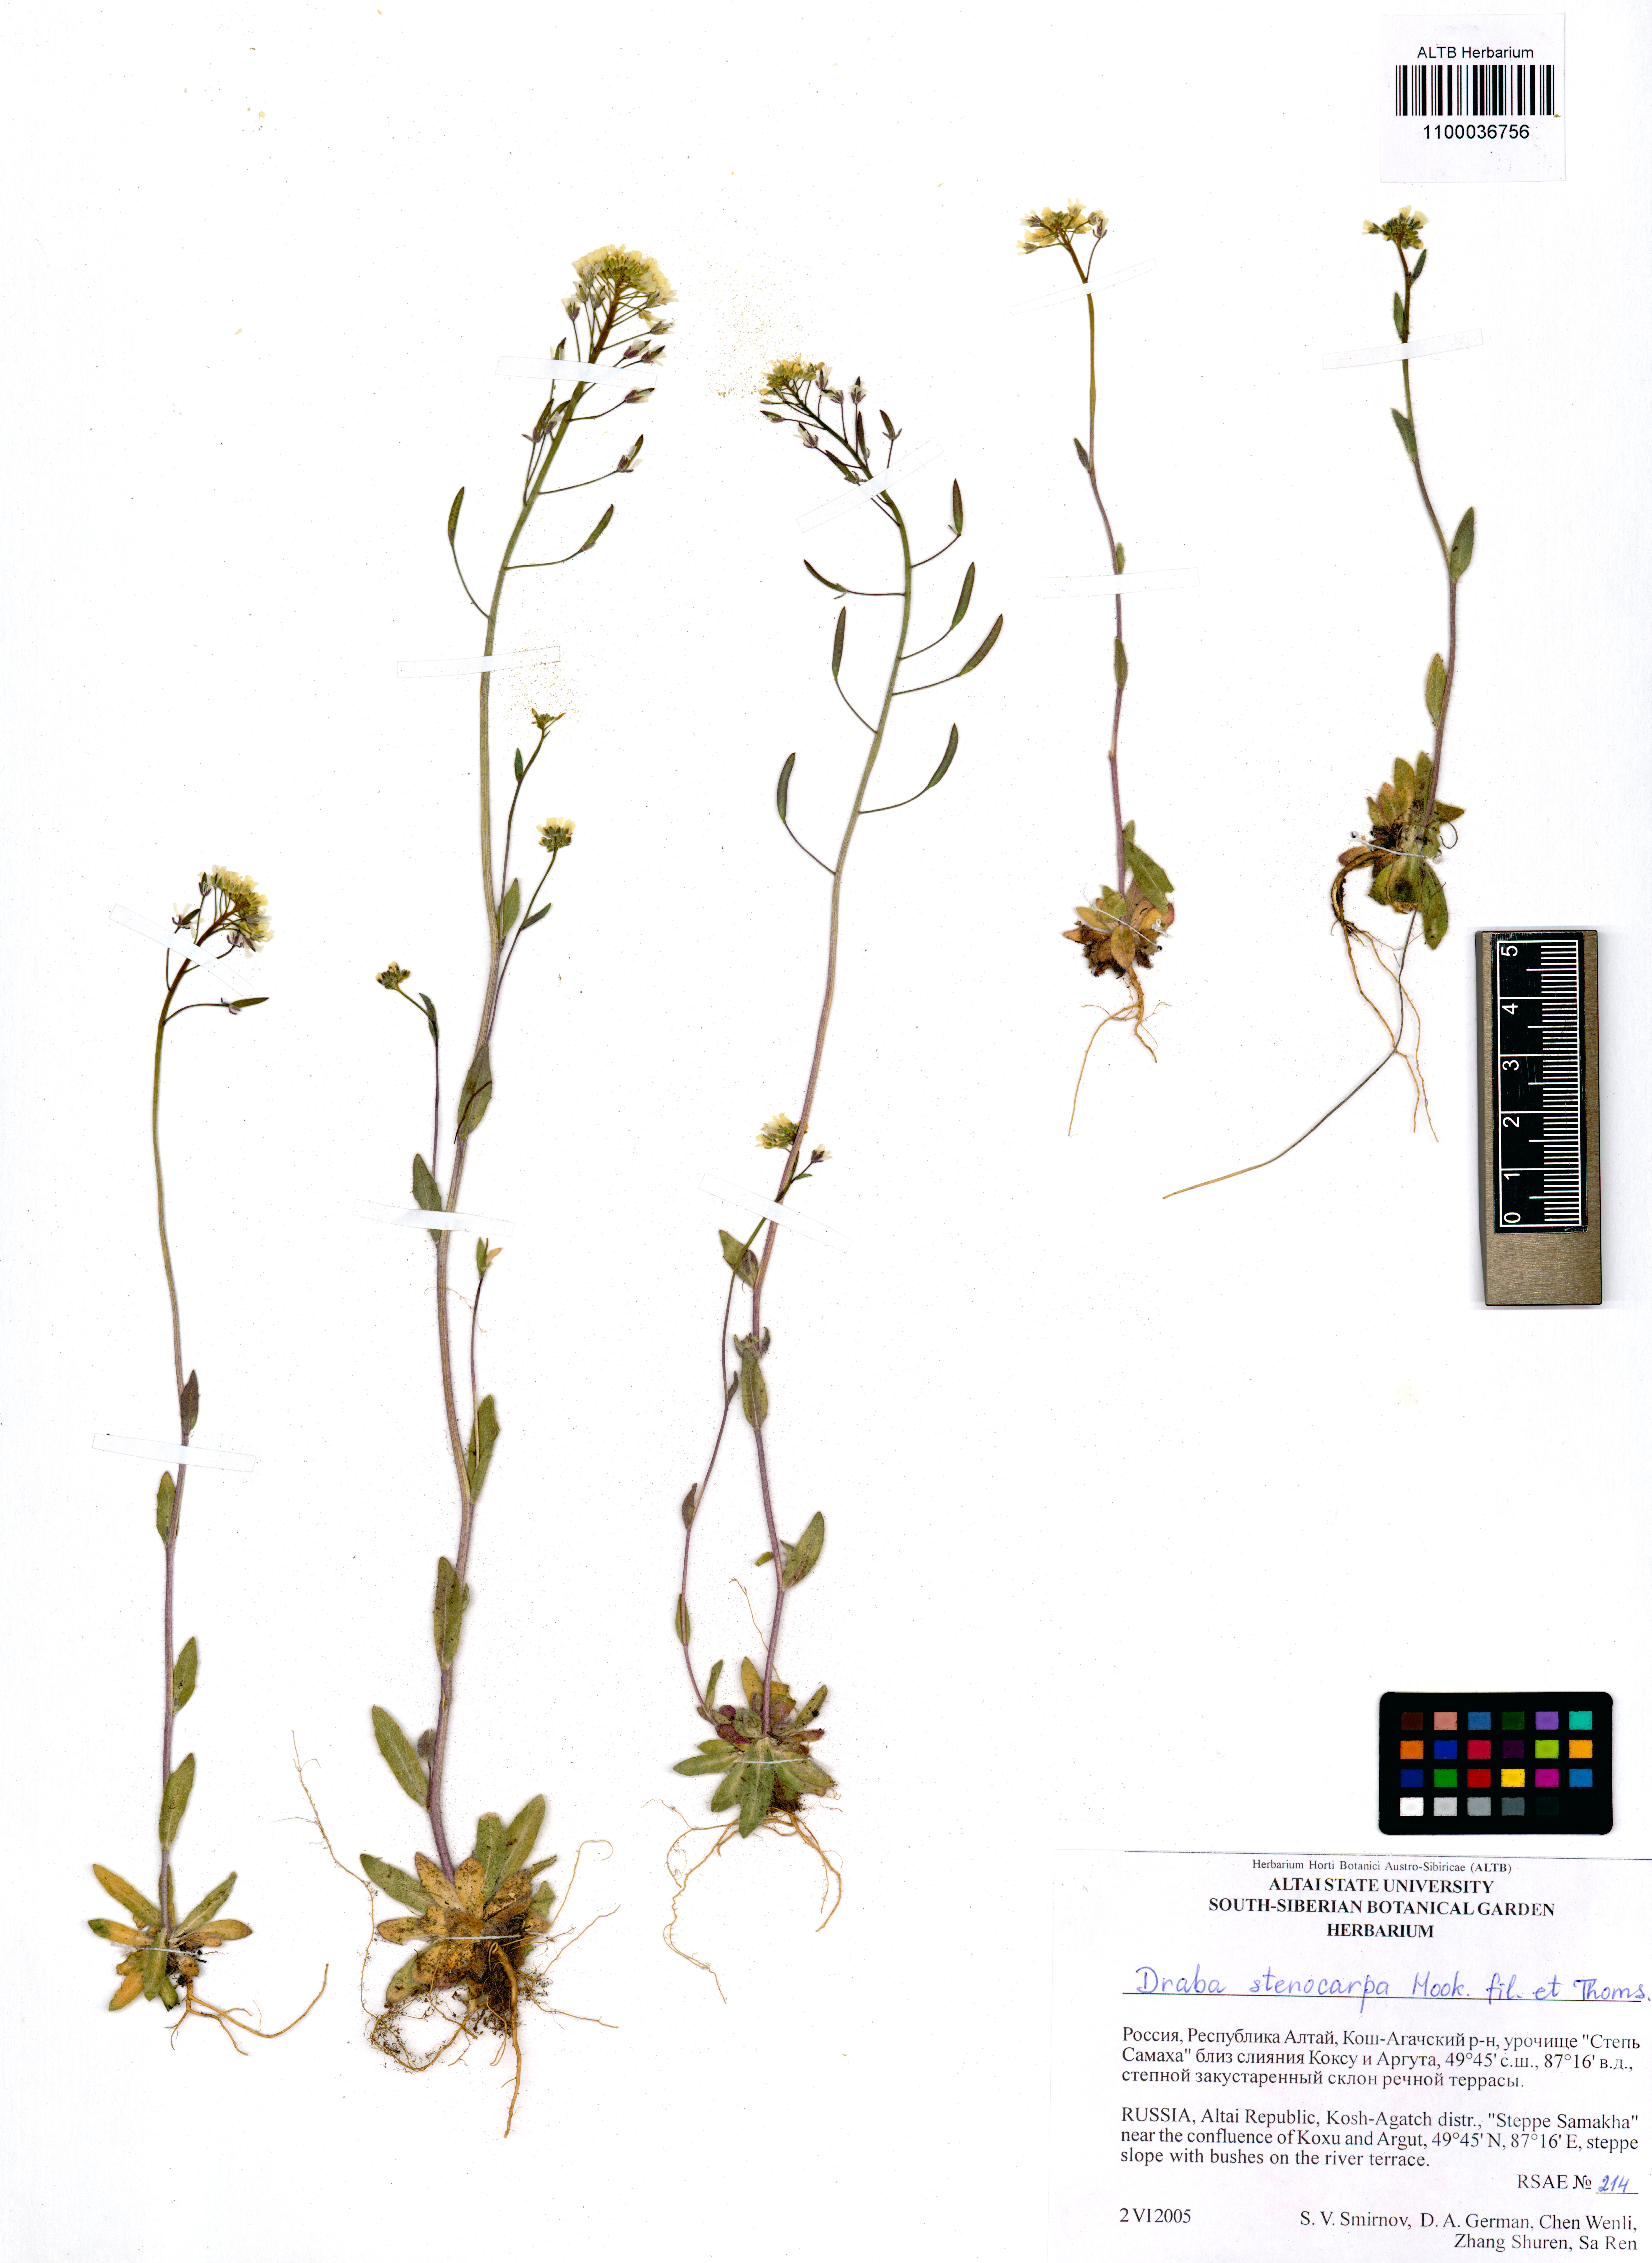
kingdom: Plantae
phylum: Tracheophyta
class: Magnoliopsida
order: Brassicales
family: Brassicaceae
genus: Draba
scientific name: Draba stenocarpa
